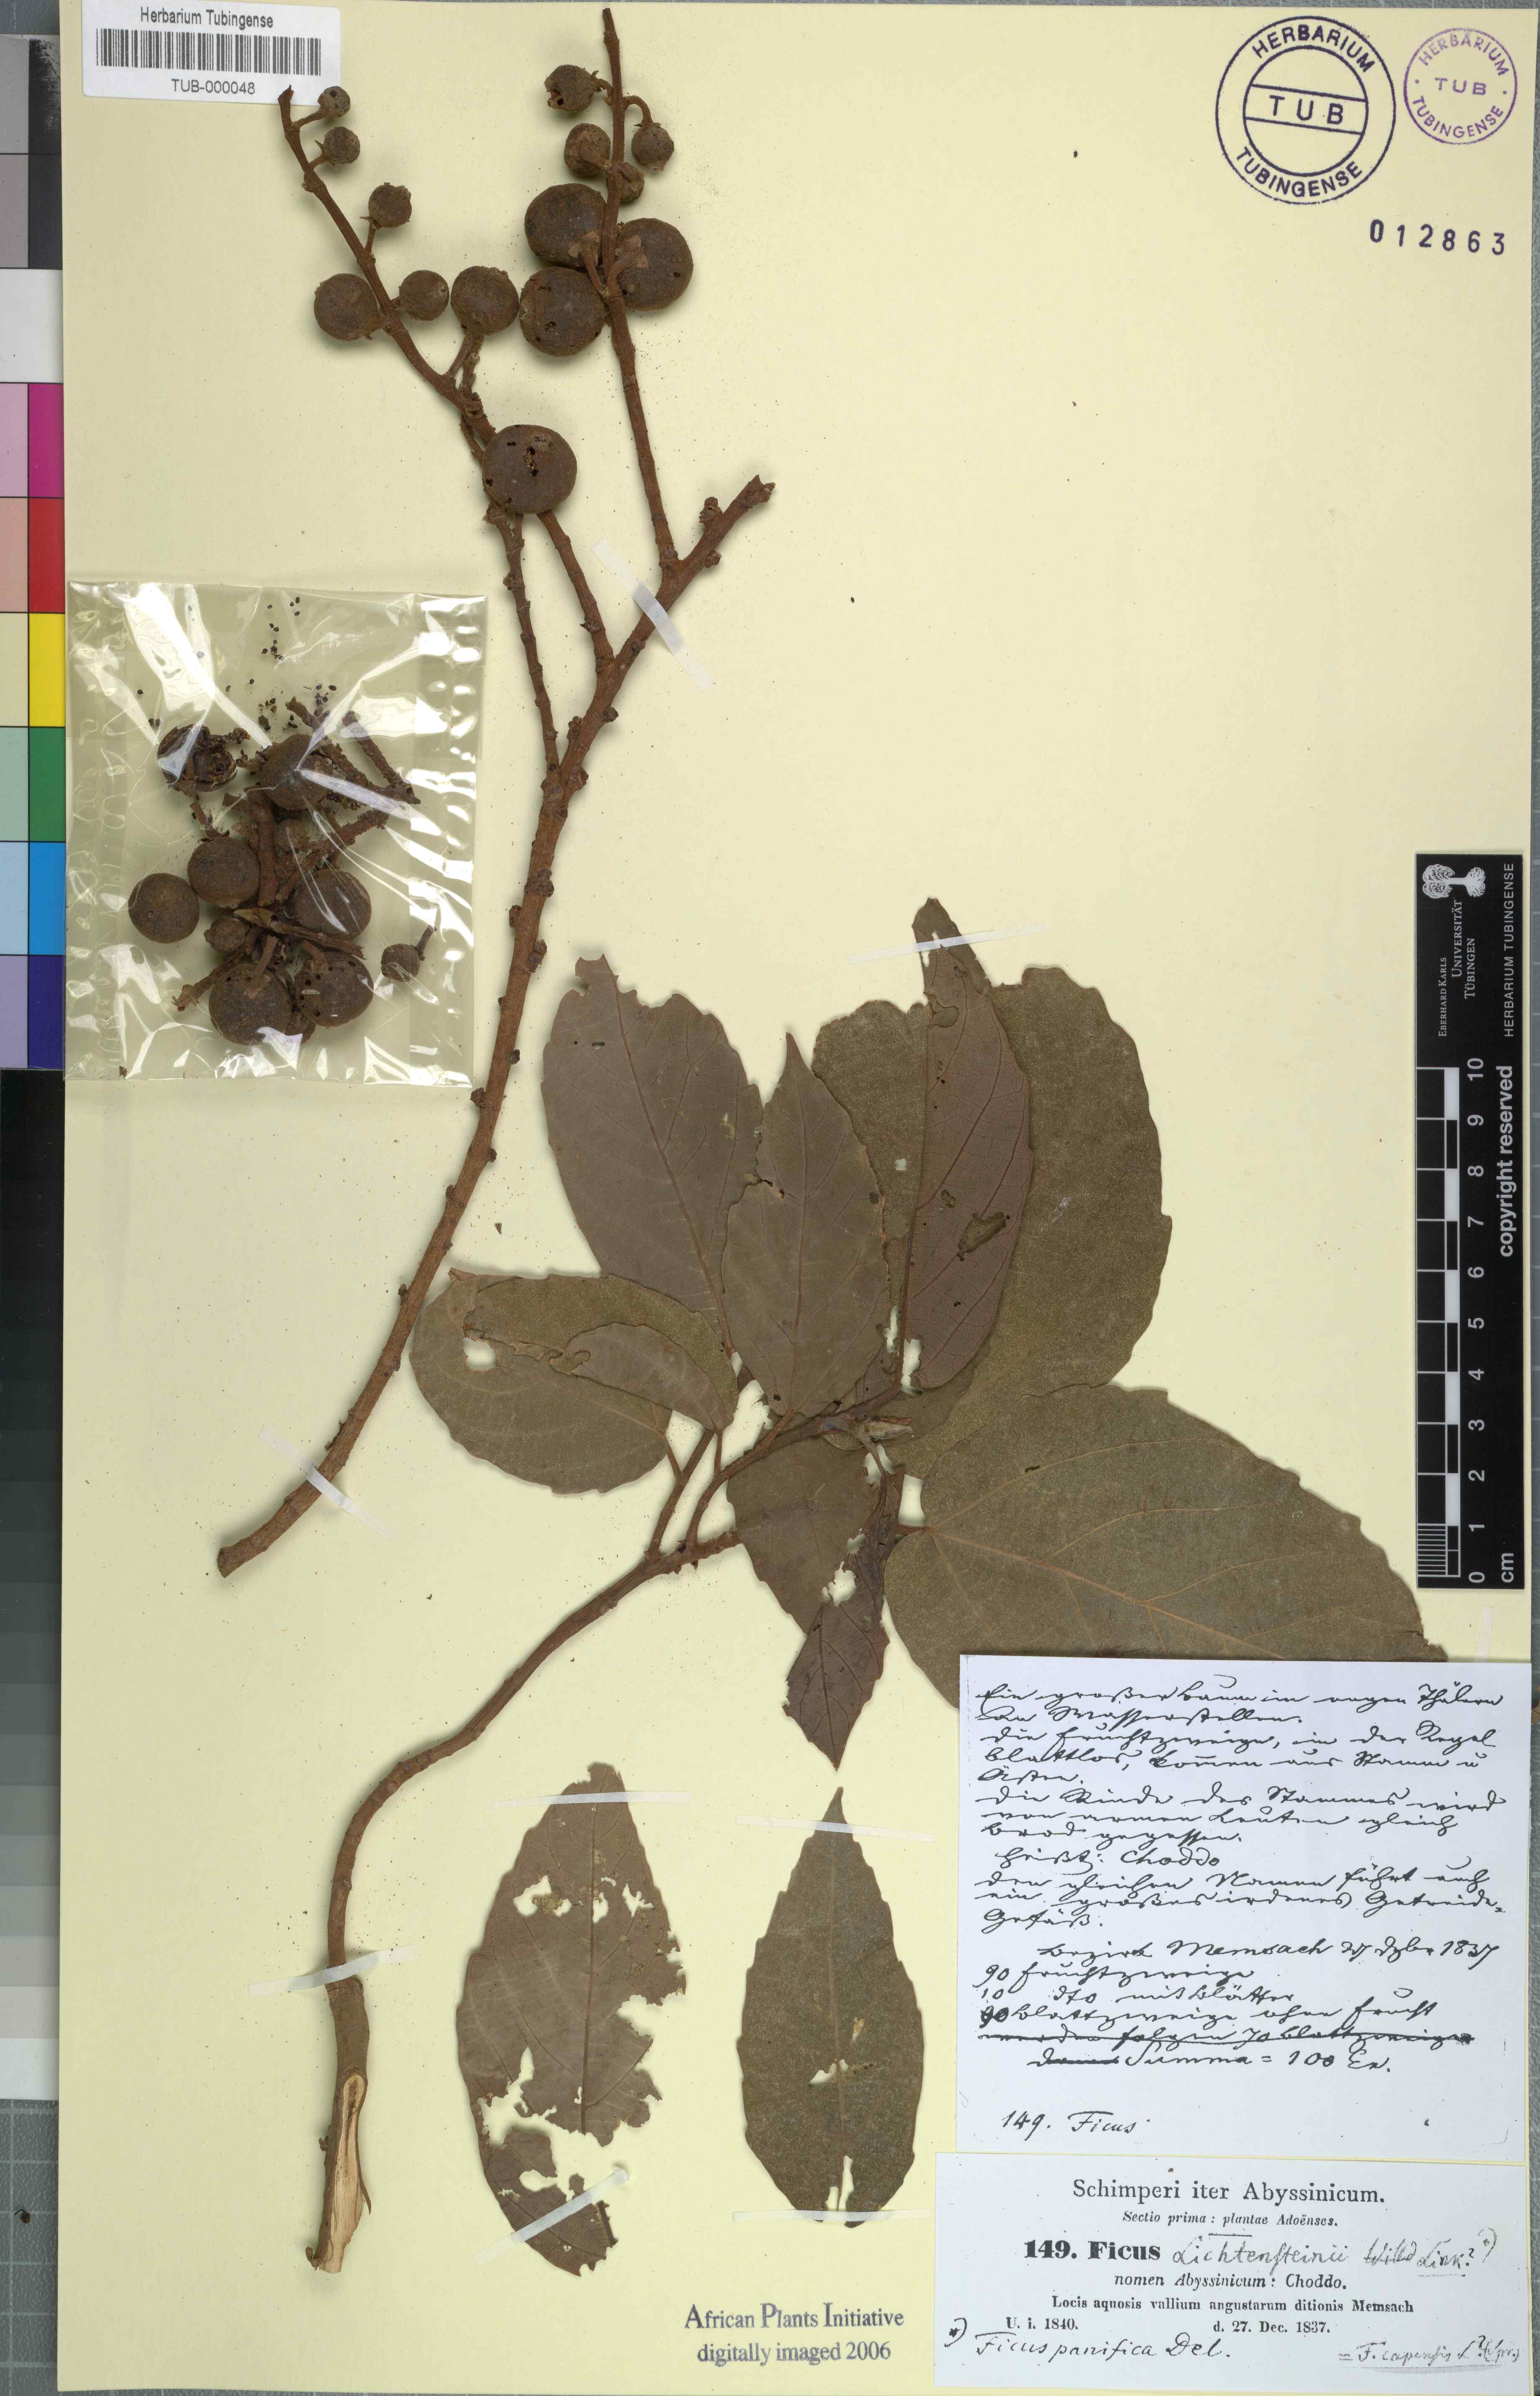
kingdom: Plantae
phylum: Tracheophyta
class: Magnoliopsida
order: Rosales
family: Moraceae
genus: Ficus
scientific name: Ficus sur
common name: Cape fig
